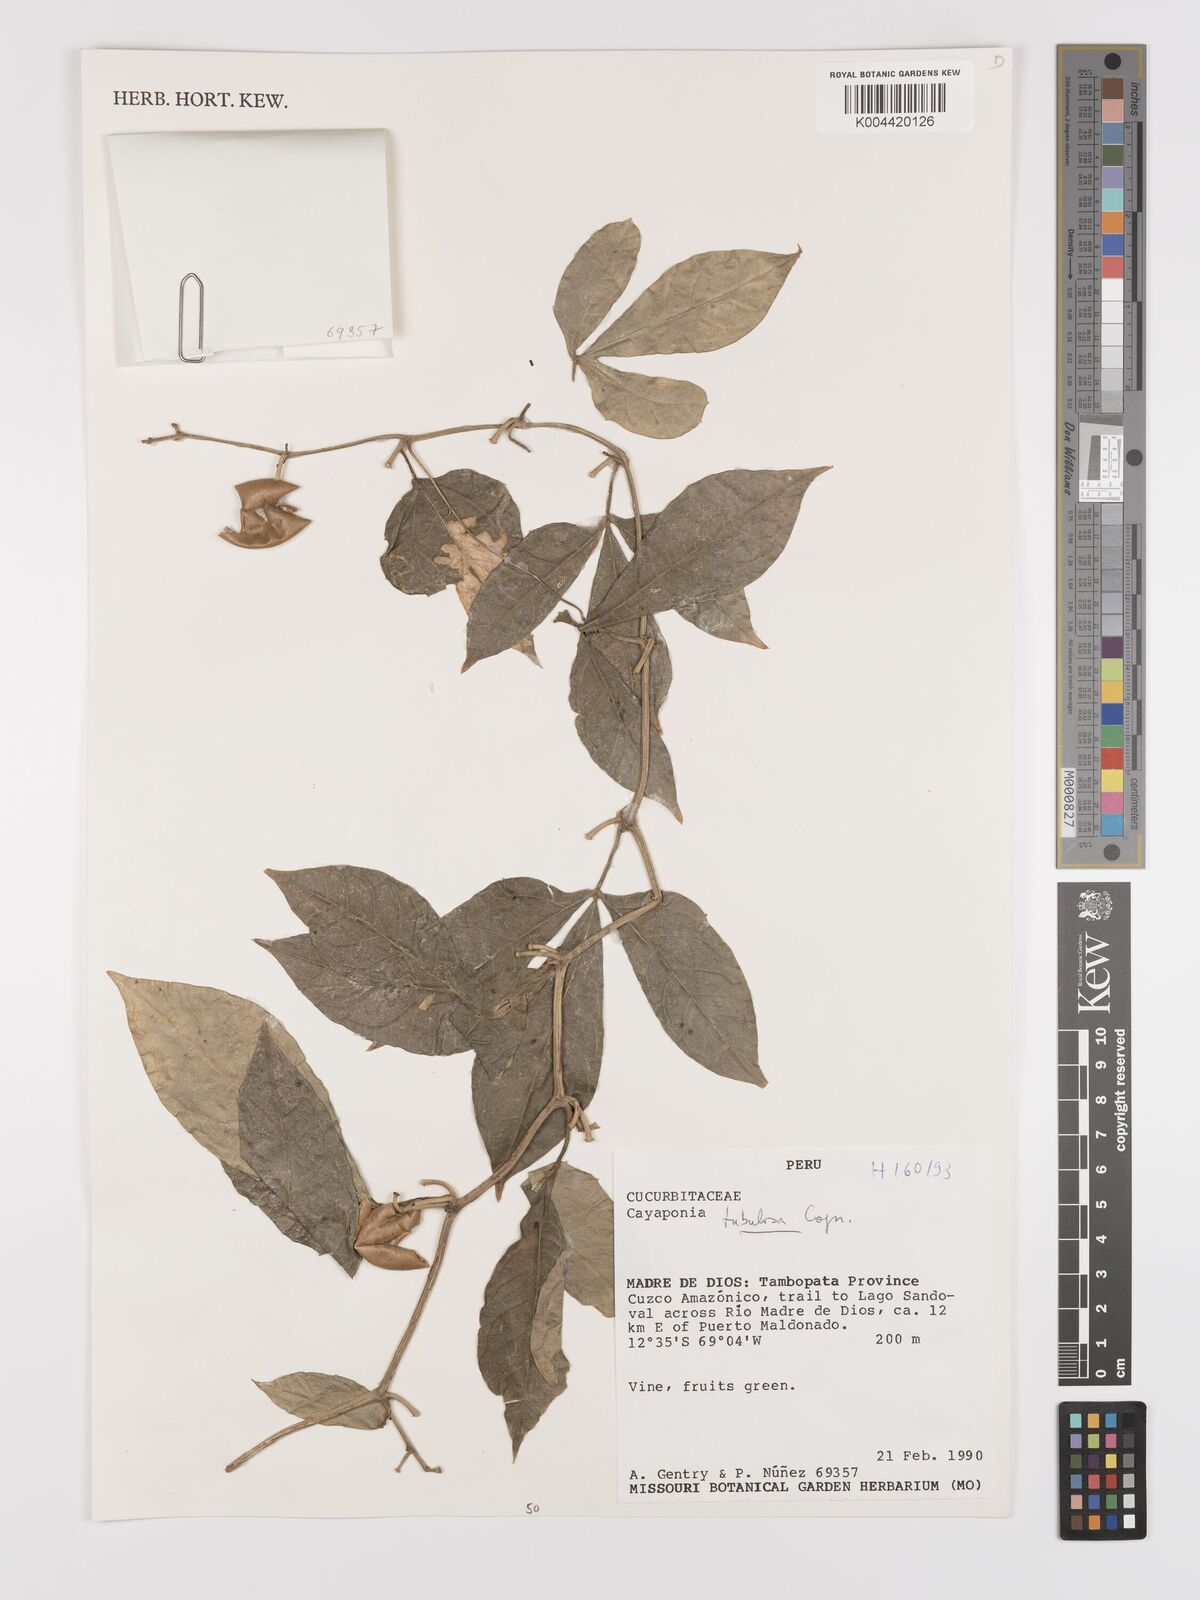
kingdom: Plantae
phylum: Tracheophyta
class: Magnoliopsida
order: Cucurbitales
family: Cucurbitaceae
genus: Cayaponia
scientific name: Cayaponia tubulosa
